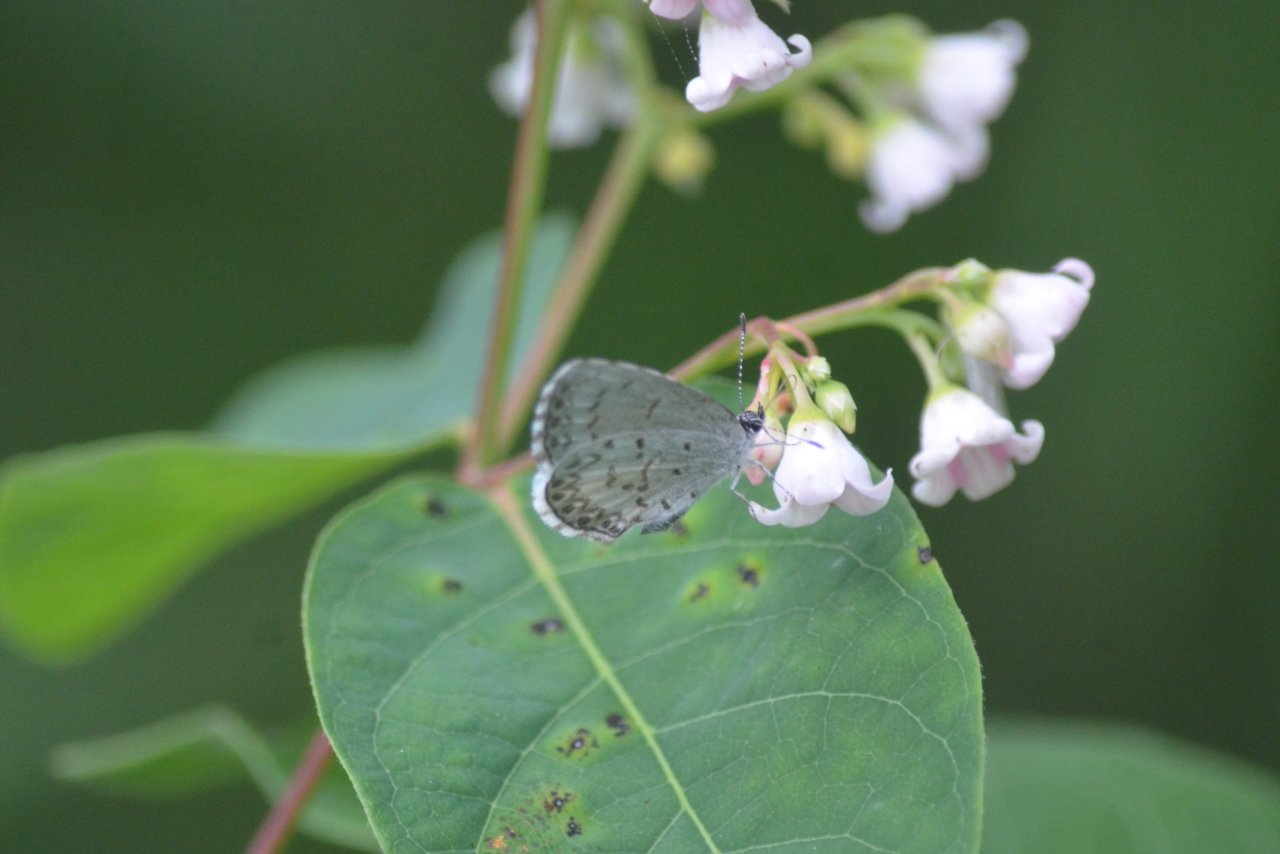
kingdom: Animalia
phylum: Arthropoda
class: Insecta
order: Lepidoptera
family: Lycaenidae
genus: Celastrina
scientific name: Celastrina lucia
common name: Northern Spring Azure
